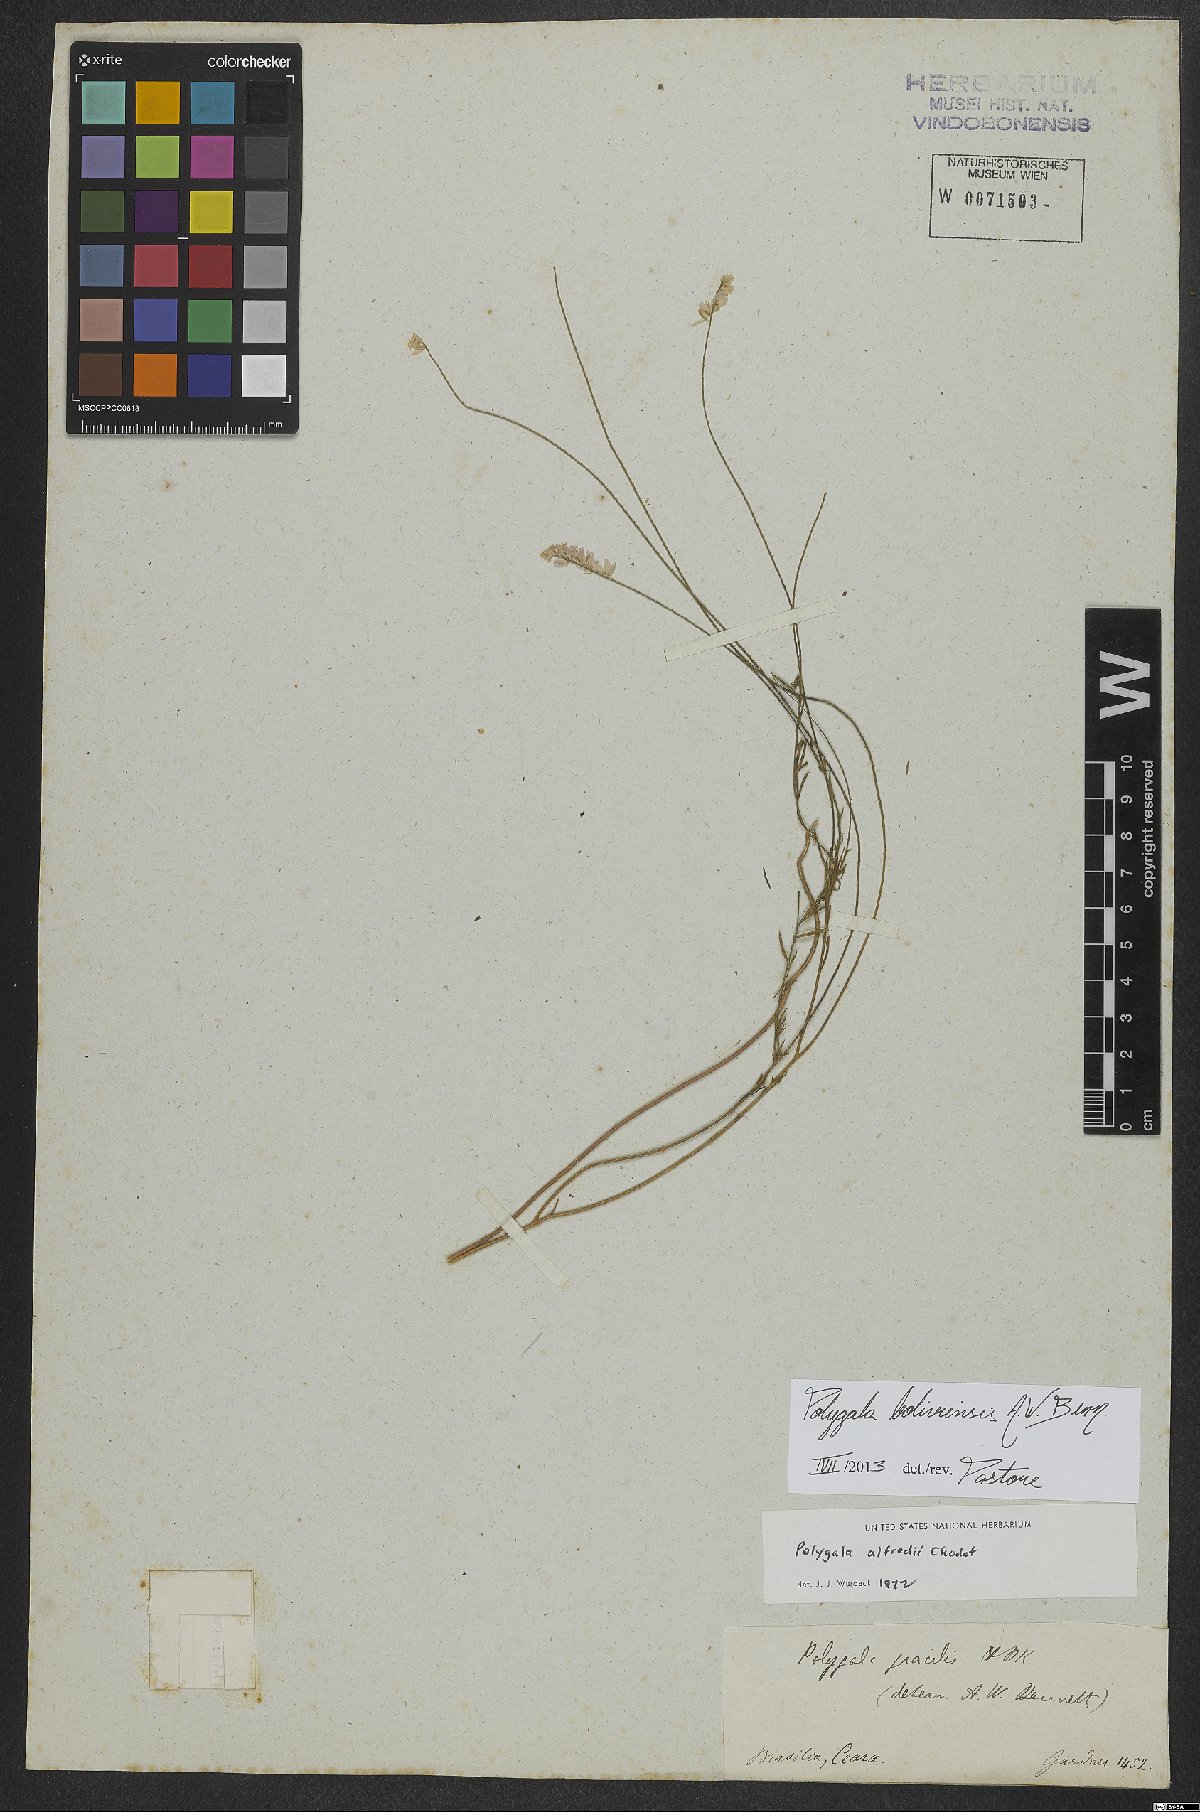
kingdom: Plantae
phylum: Tracheophyta
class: Magnoliopsida
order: Fabales
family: Polygalaceae
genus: Polygala
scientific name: Polygala boliviensis
